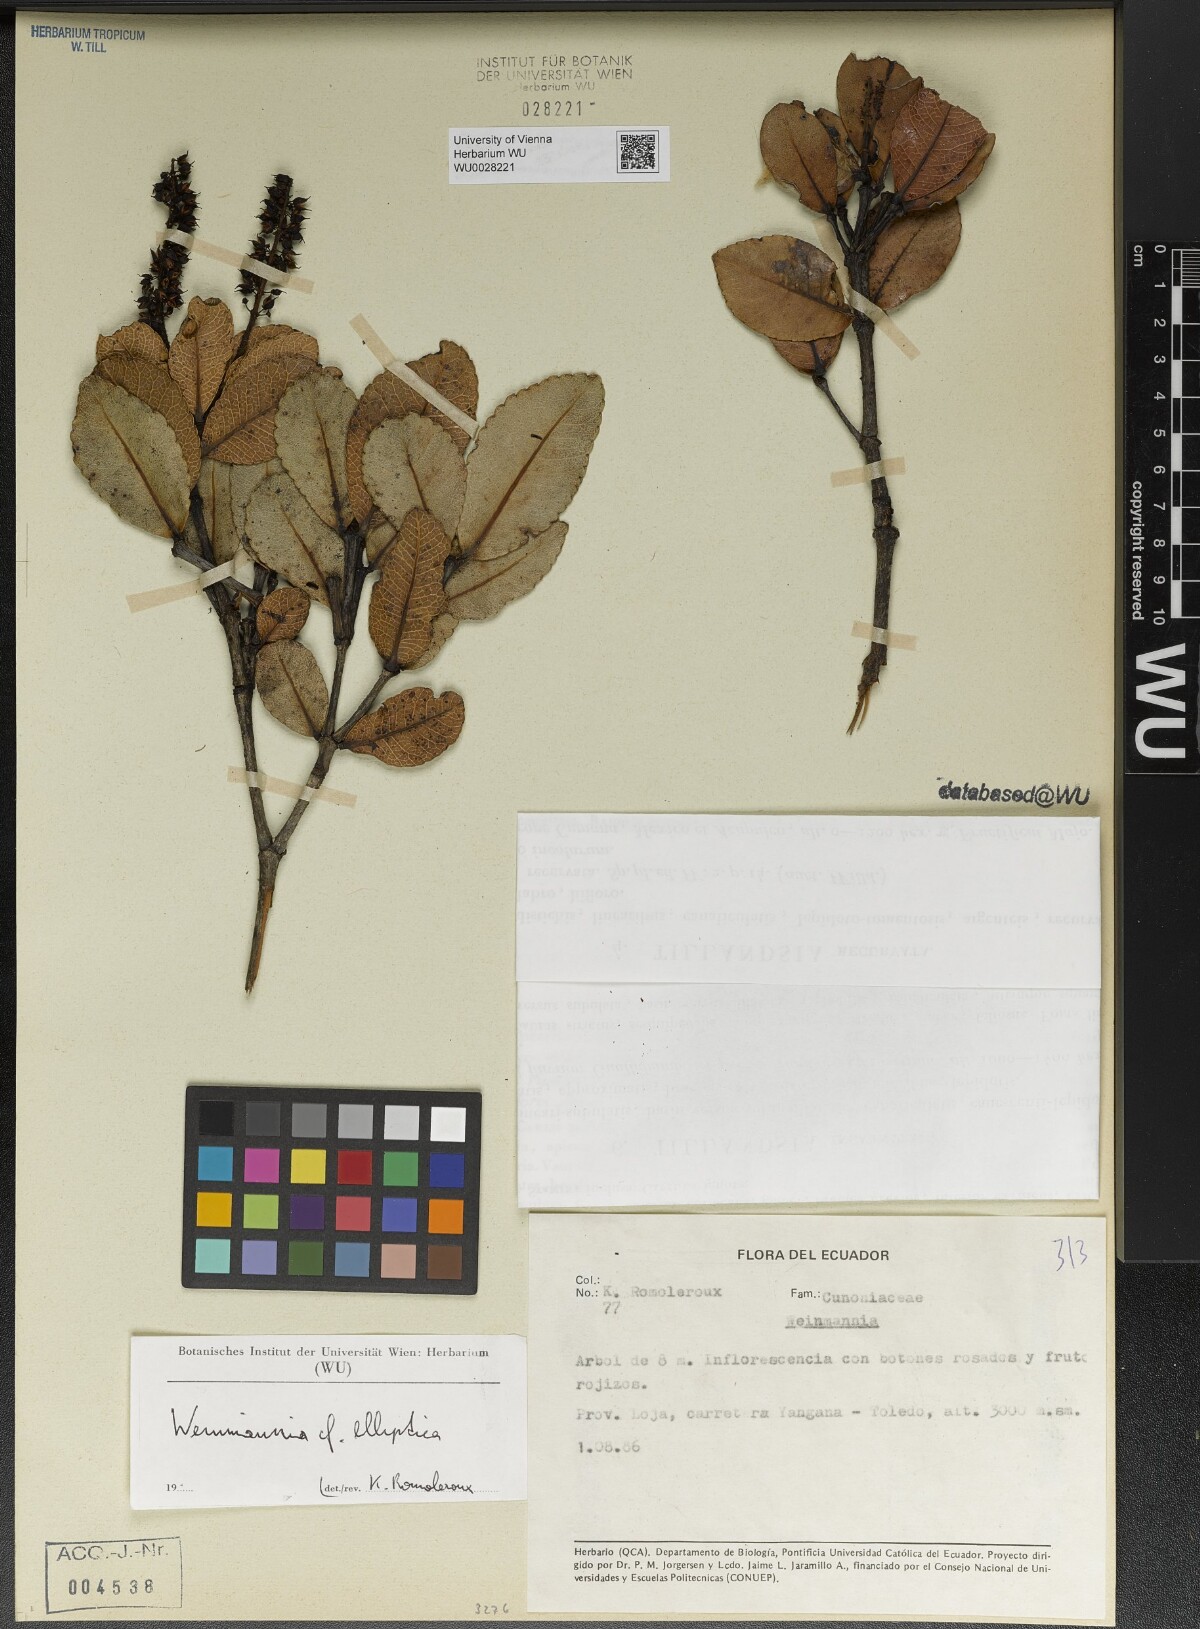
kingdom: Plantae
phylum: Tracheophyta
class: Magnoliopsida
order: Oxalidales
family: Cunoniaceae
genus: Weinmannia
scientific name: Weinmannia elliptica
